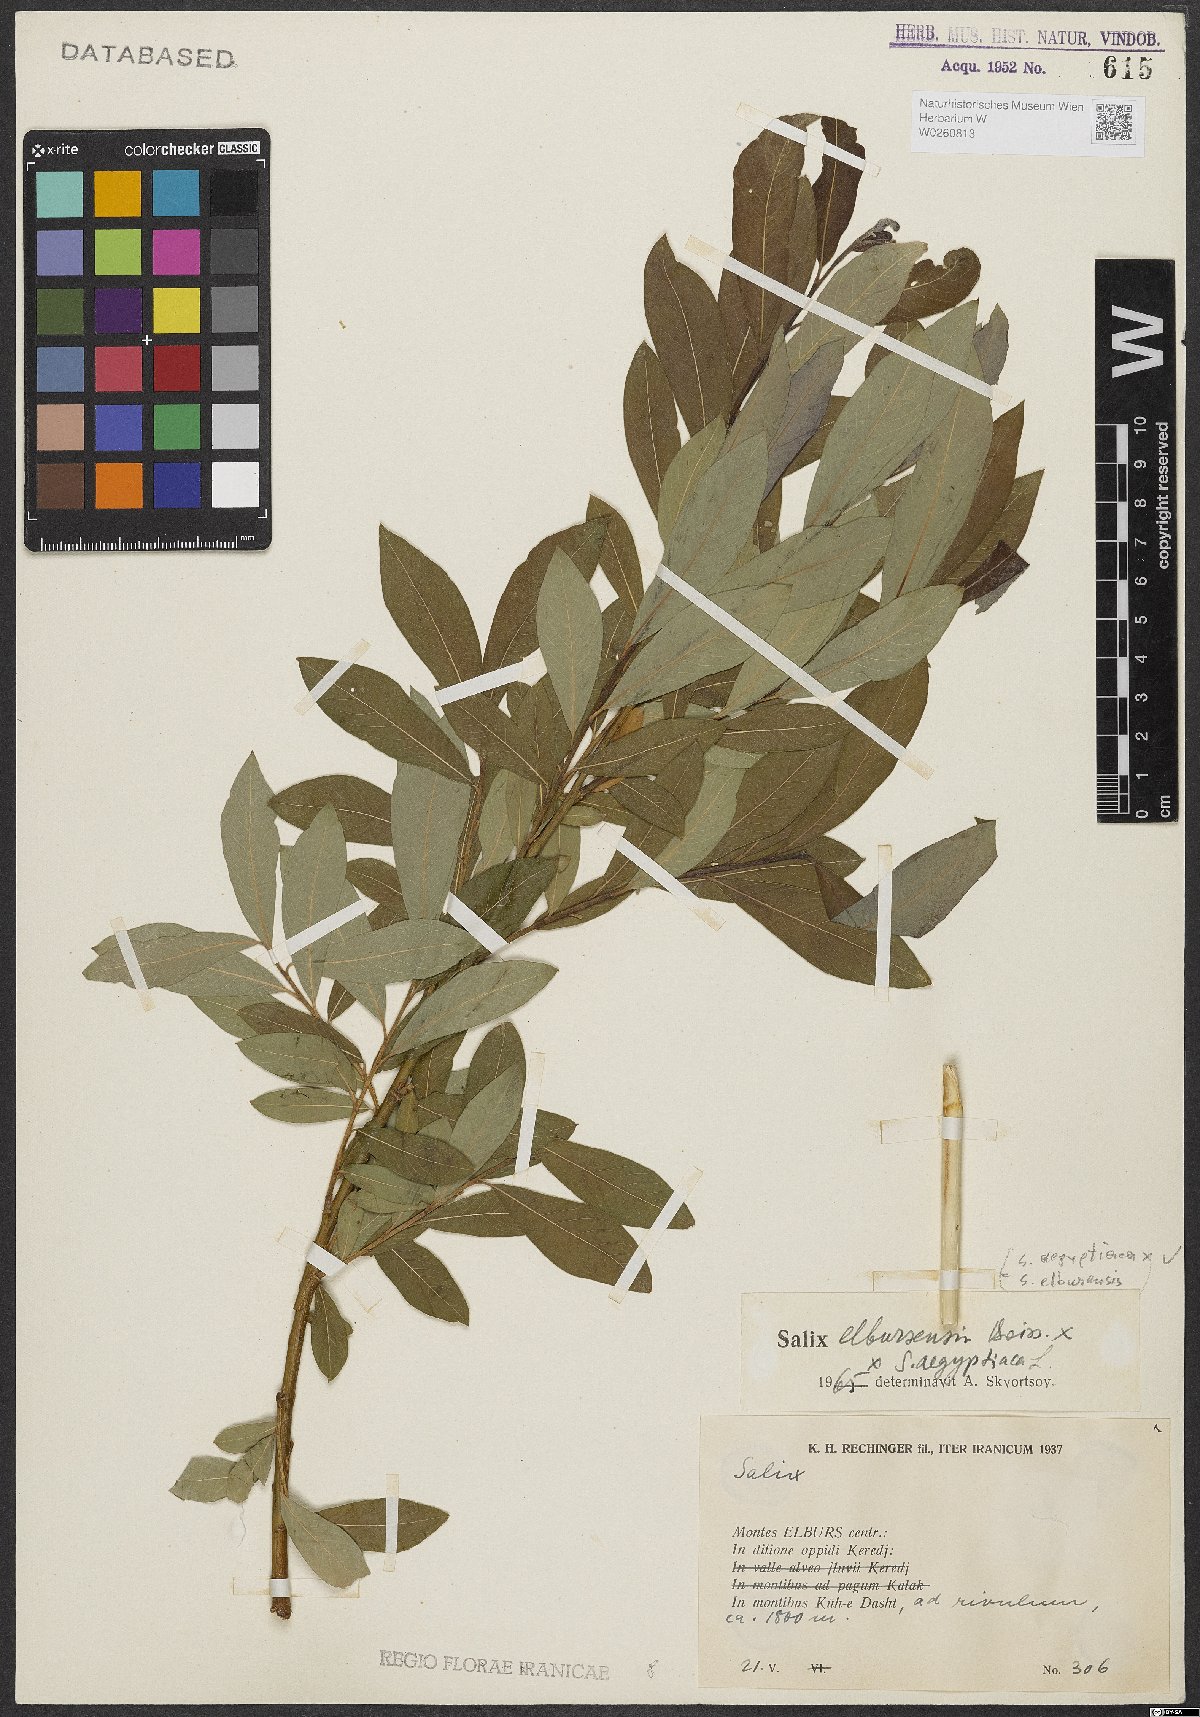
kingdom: Plantae
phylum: Tracheophyta
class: Magnoliopsida
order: Malpighiales
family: Salicaceae
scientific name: Salicaceae
